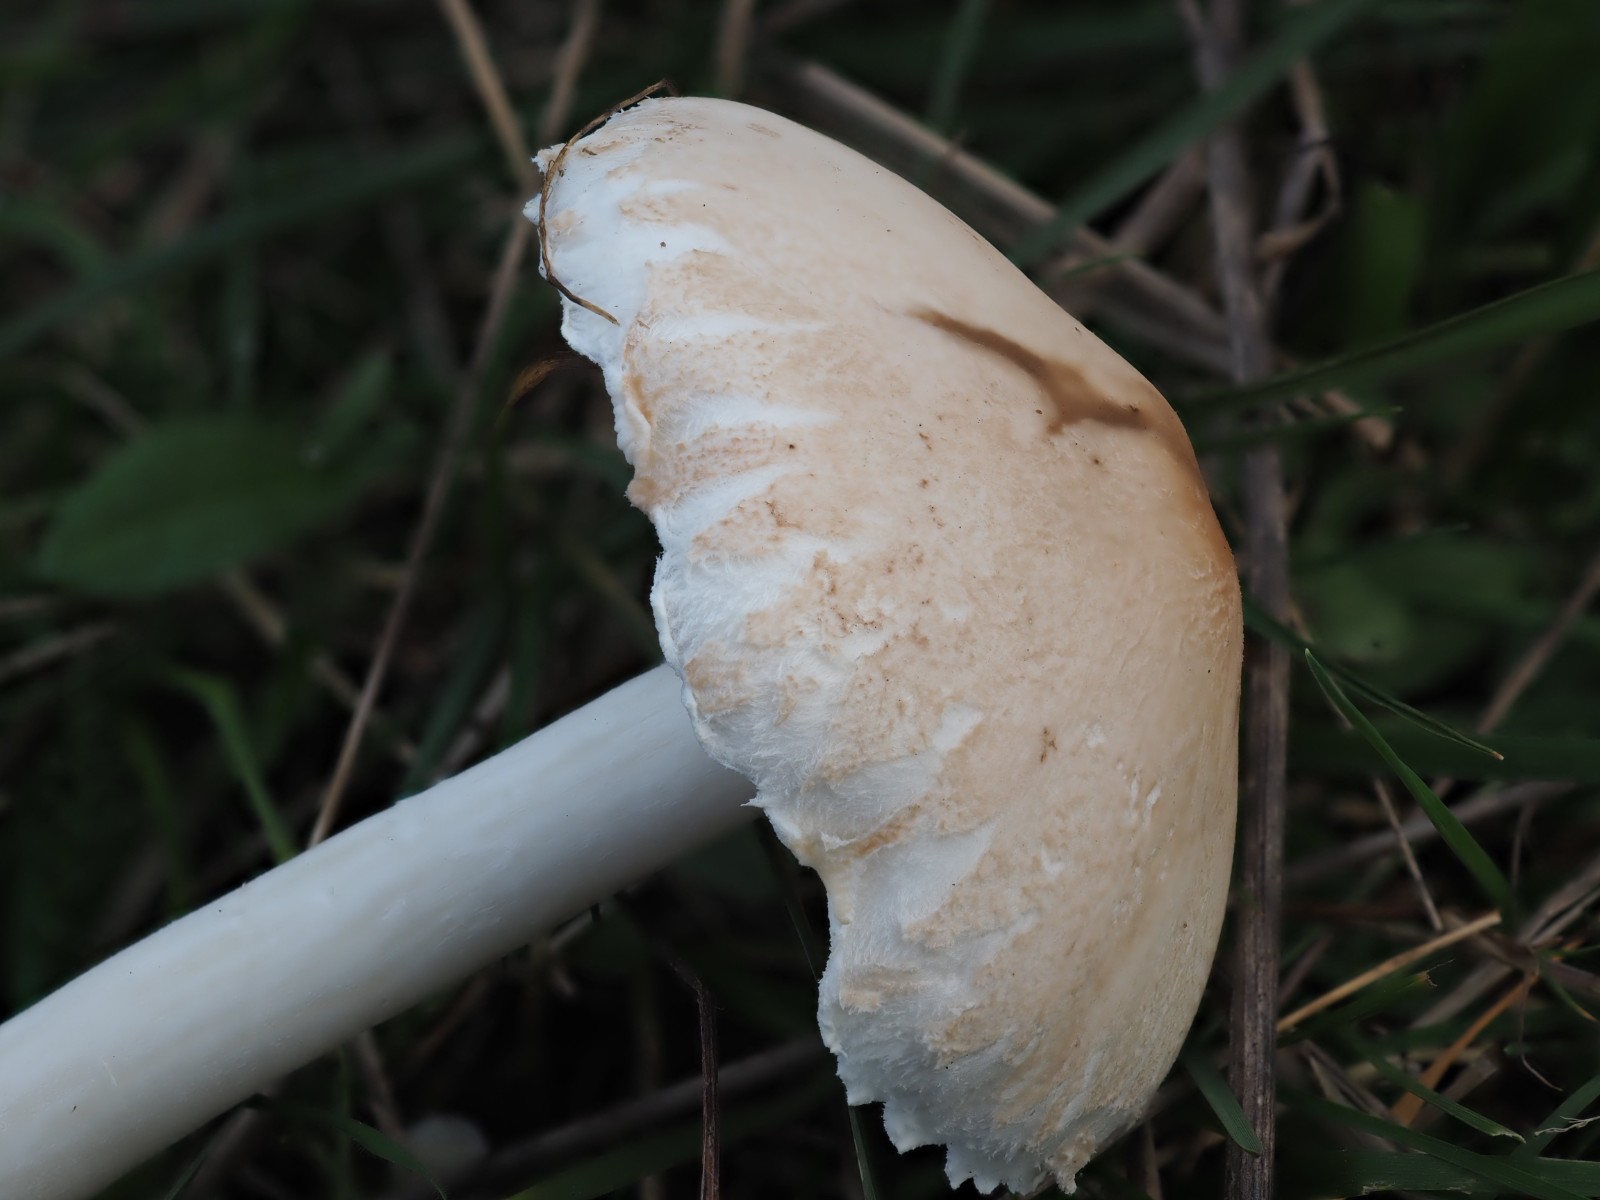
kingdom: Fungi
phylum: Basidiomycota
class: Agaricomycetes
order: Agaricales
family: Agaricaceae
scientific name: Agaricaceae
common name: champignonfamilien
